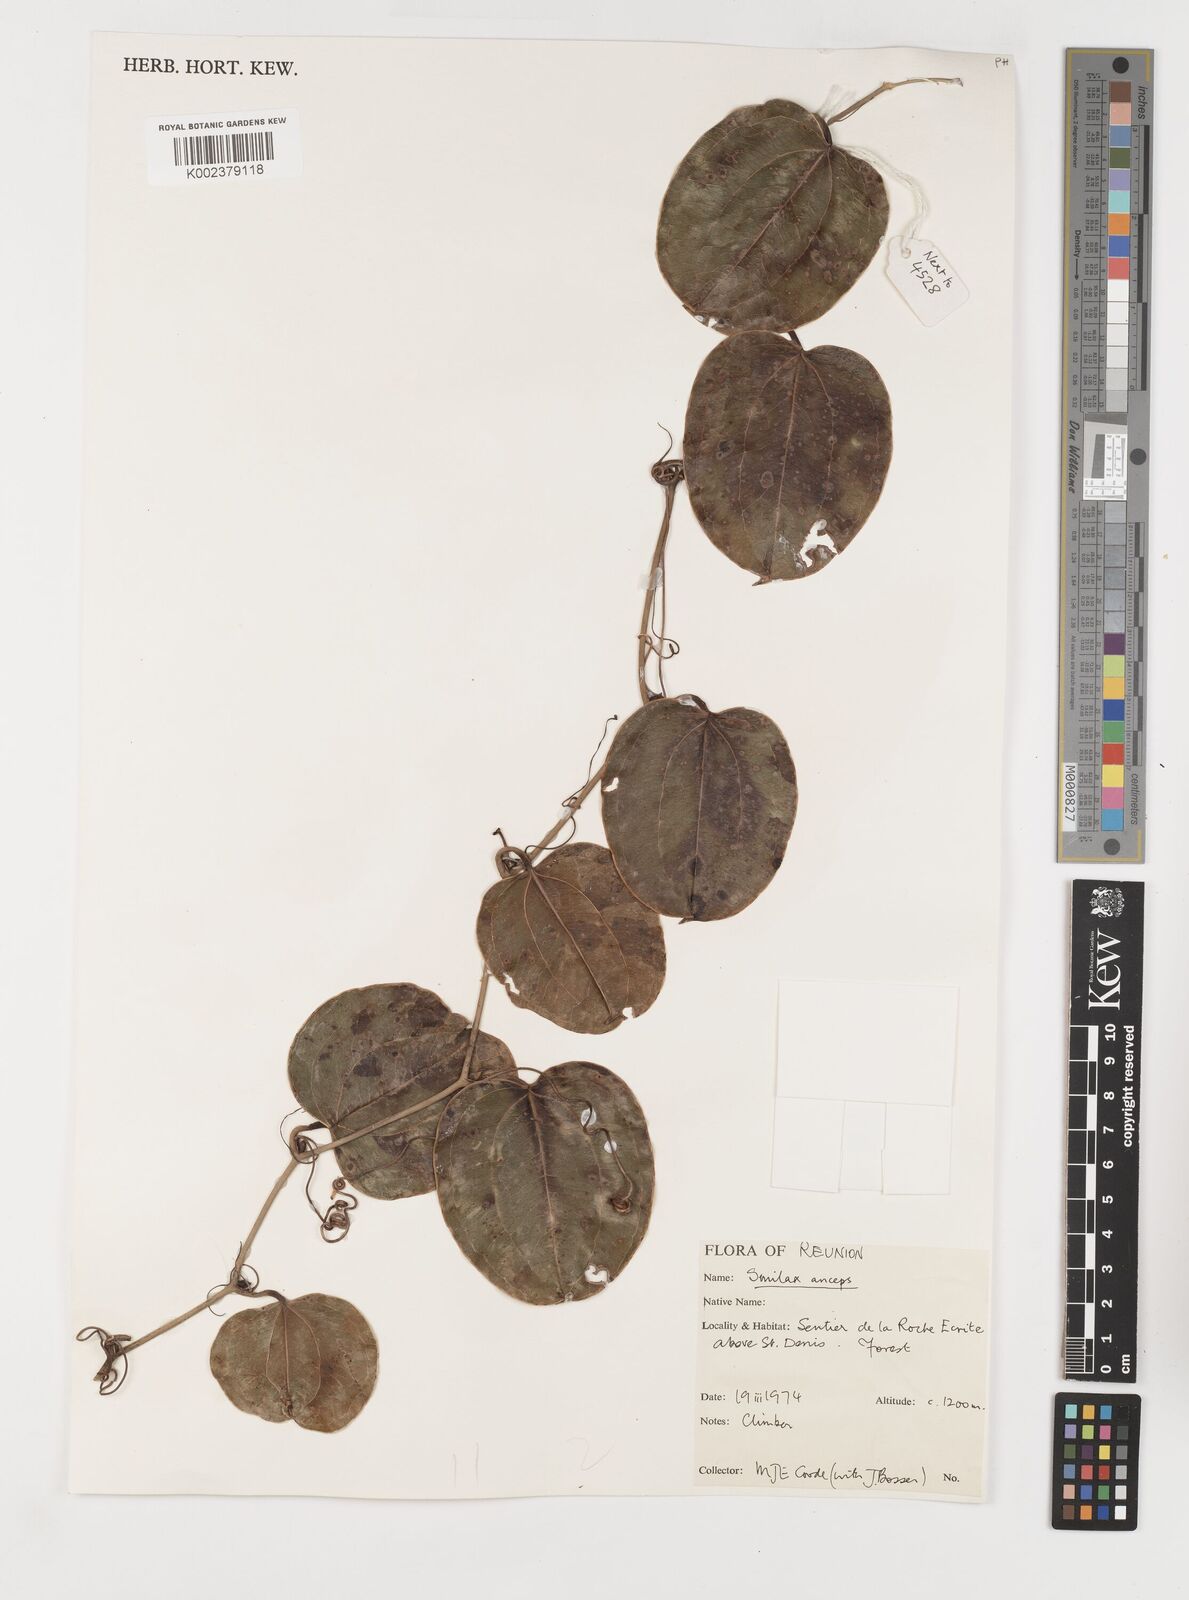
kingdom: Plantae
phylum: Tracheophyta
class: Liliopsida
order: Liliales
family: Smilacaceae
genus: Smilax
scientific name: Smilax anceps
